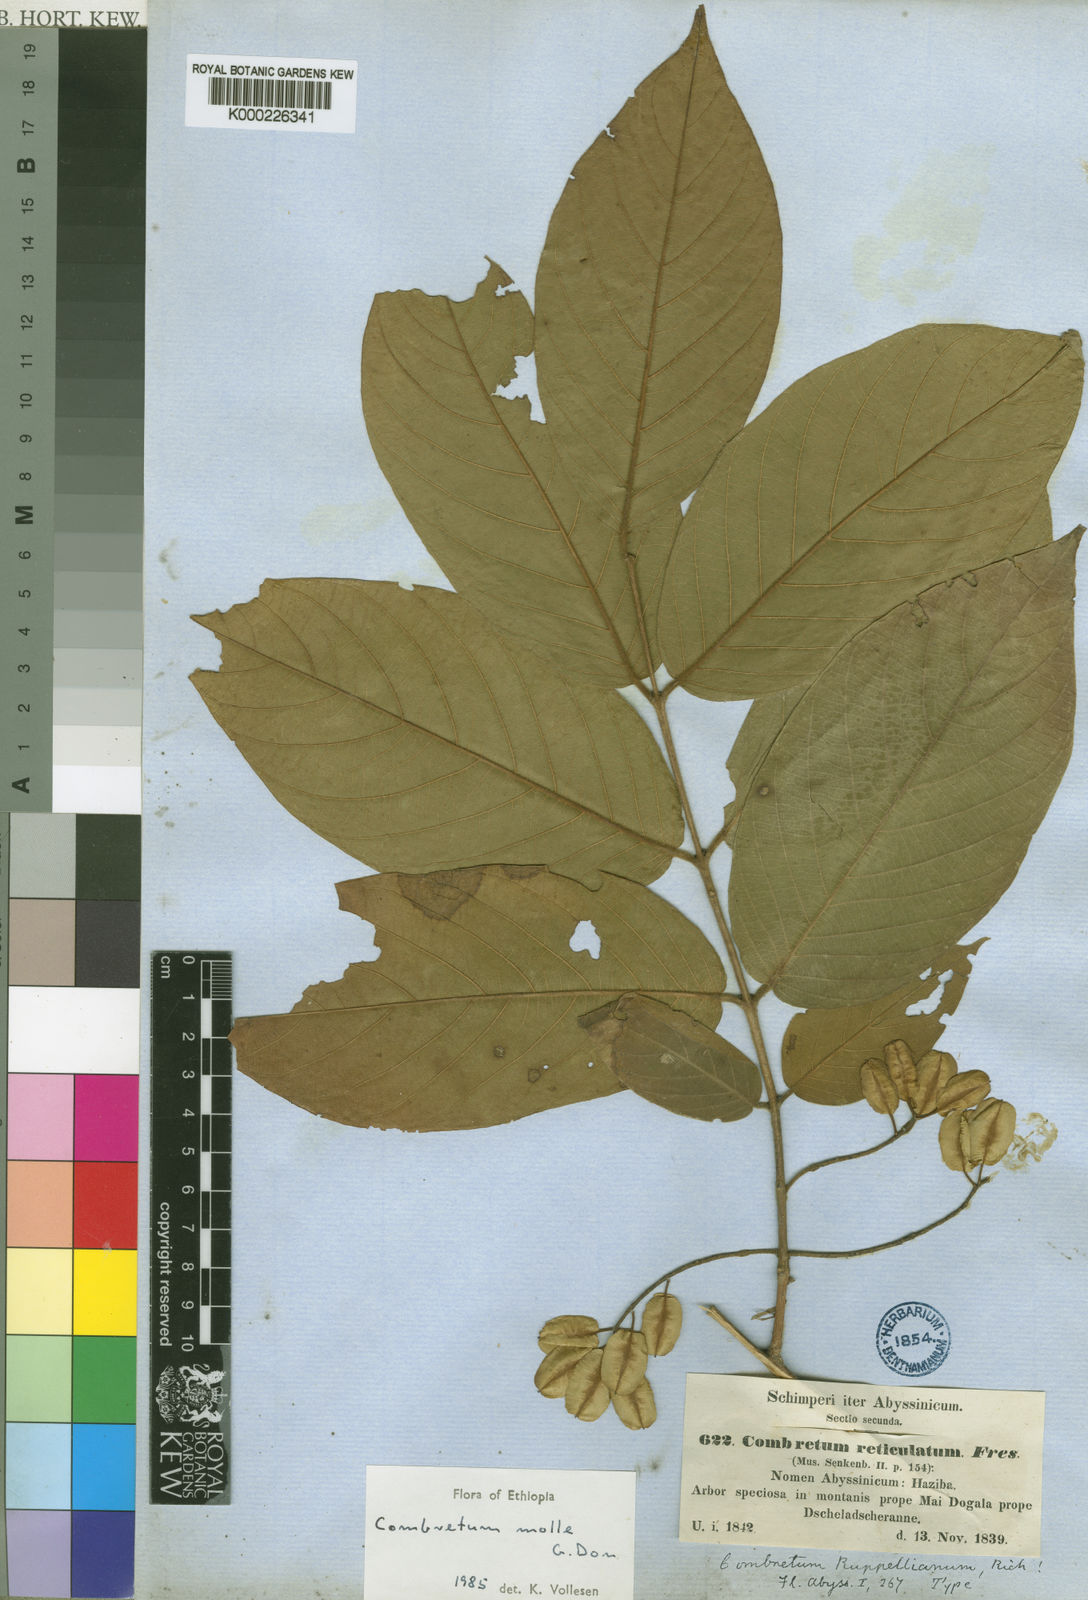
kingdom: Plantae
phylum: Tracheophyta
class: Magnoliopsida
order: Myrtales
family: Combretaceae
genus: Combretum
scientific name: Combretum molle
